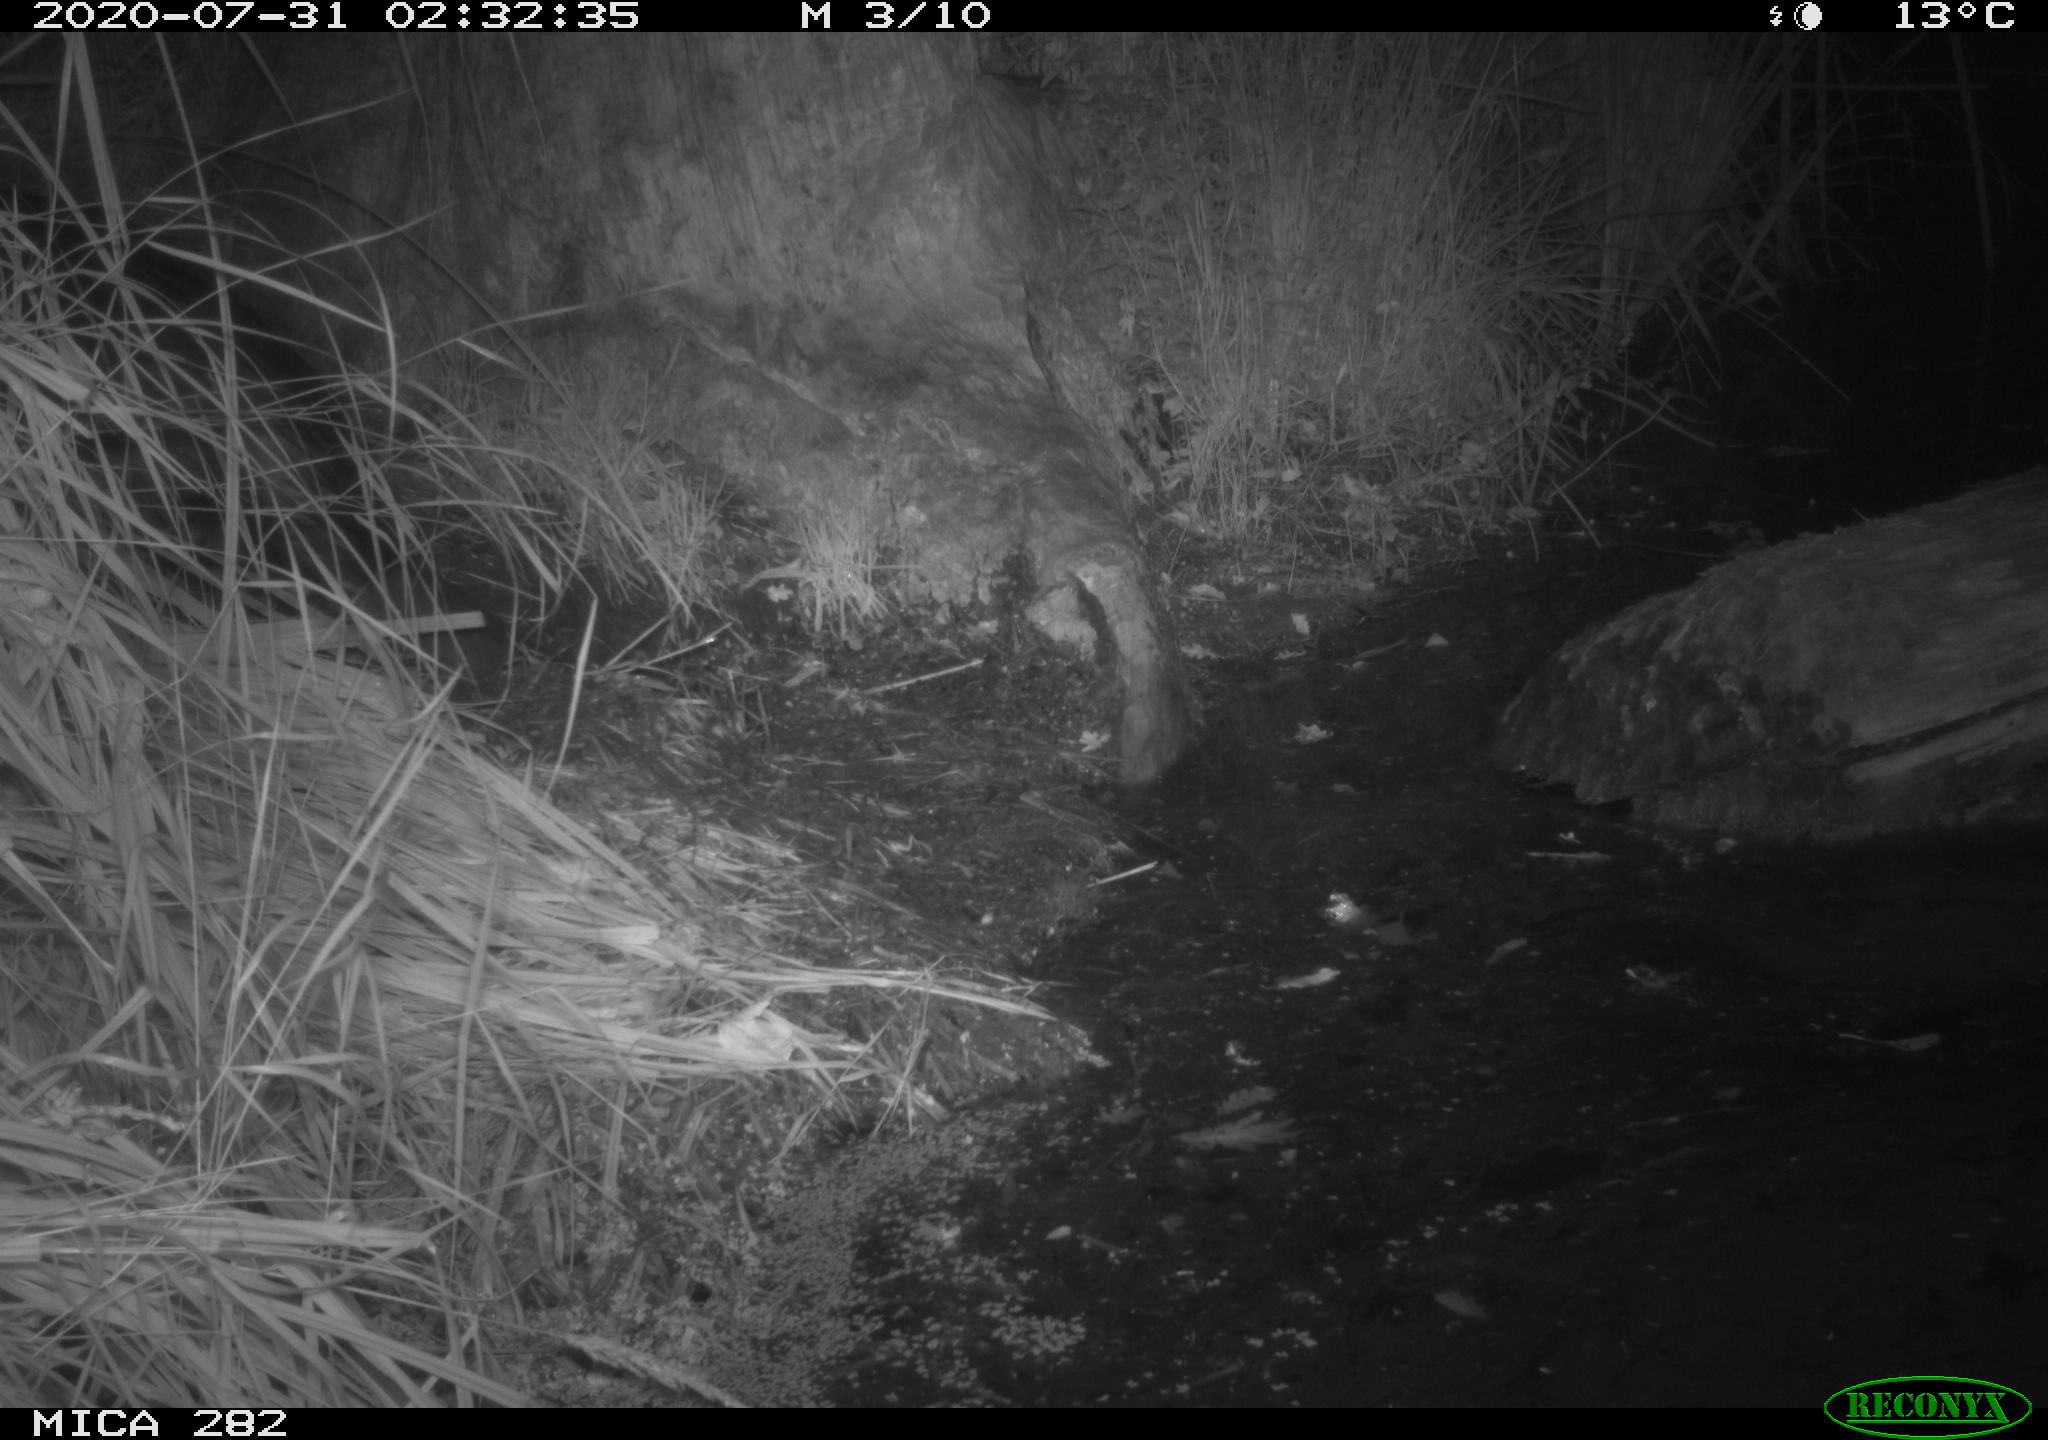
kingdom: Animalia
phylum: Chordata
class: Mammalia
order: Rodentia
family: Castoridae
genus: Castor
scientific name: Castor fiber
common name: Eurasian beaver
